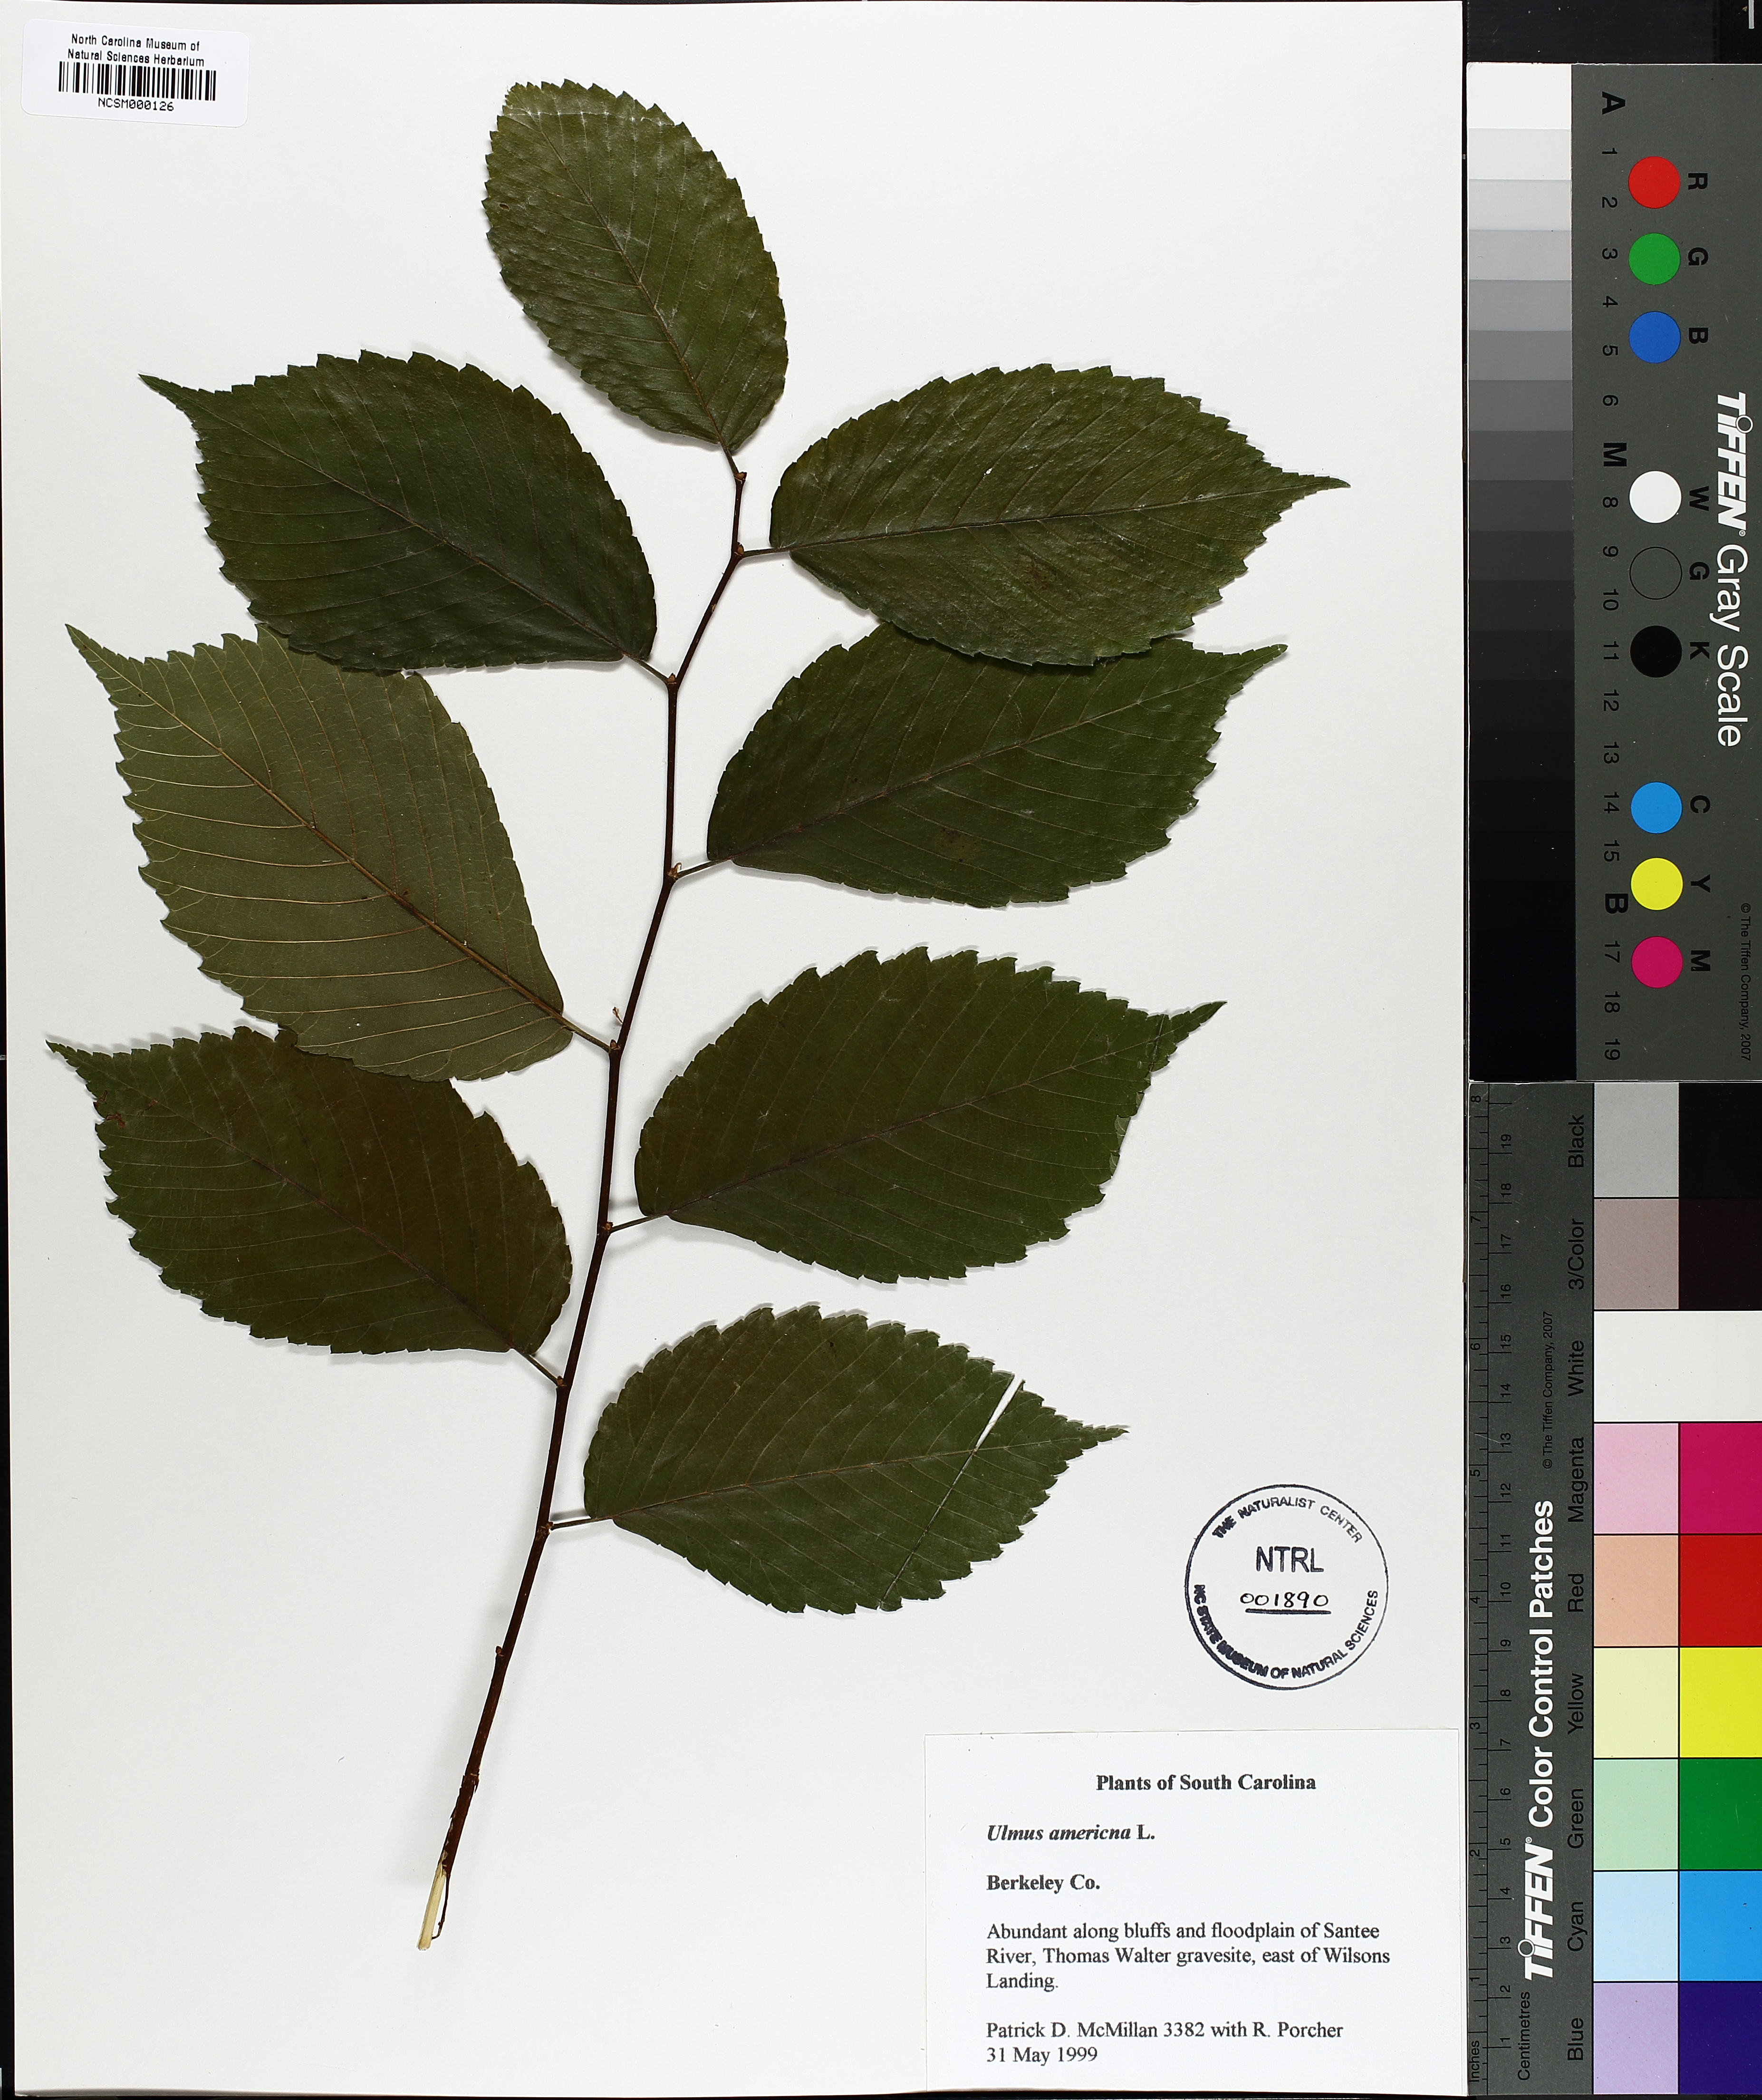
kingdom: Plantae
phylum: Tracheophyta
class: Magnoliopsida
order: Rosales
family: Ulmaceae
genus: Ulmus
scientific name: Ulmus americana
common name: American elm
